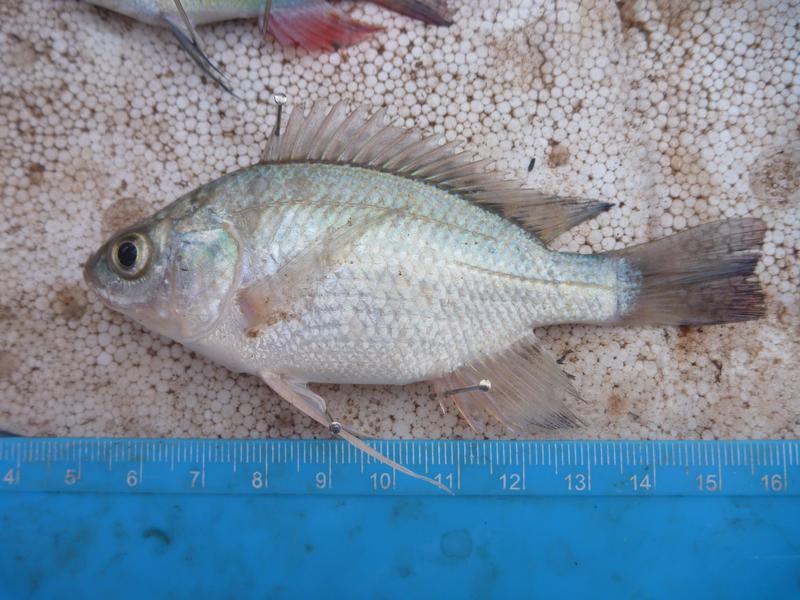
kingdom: Animalia
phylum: Chordata
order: Perciformes
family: Cichlidae
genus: Oreochromis
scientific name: Oreochromis esculentus
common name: Carp
